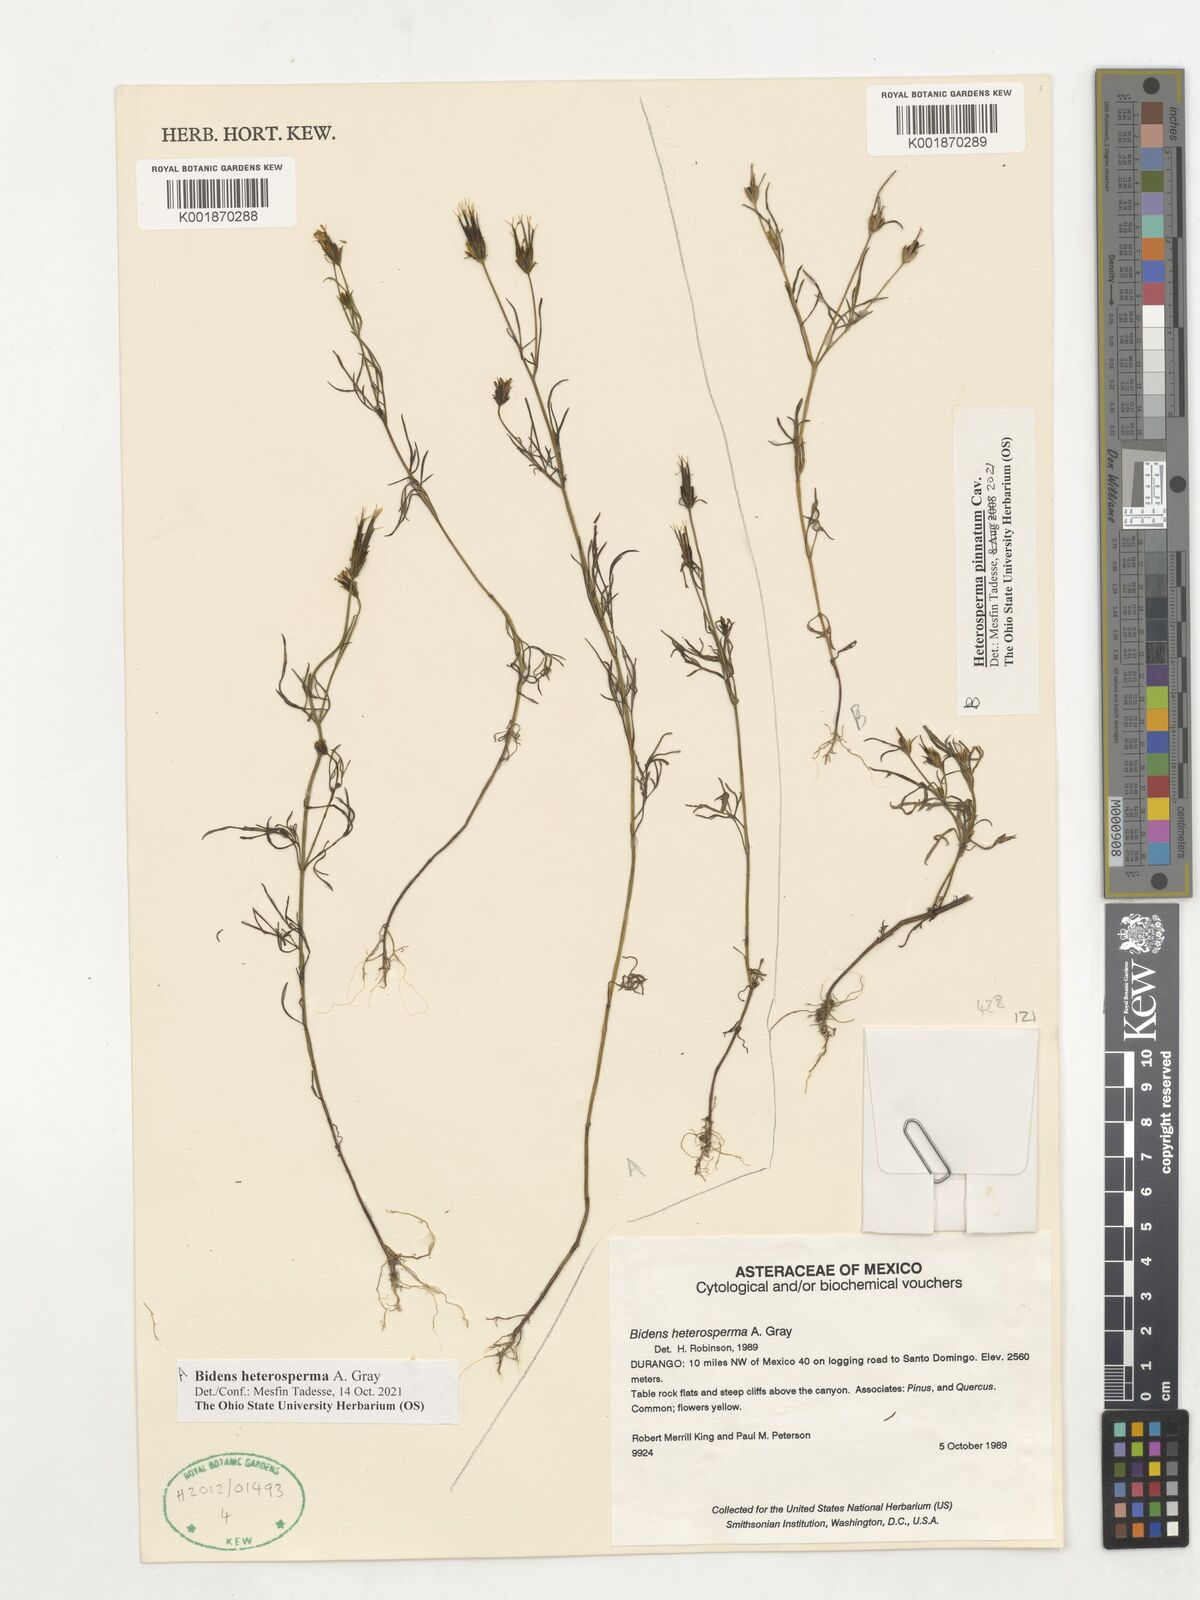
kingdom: Plantae
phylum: Tracheophyta
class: Magnoliopsida
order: Asterales
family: Asteraceae
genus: Bidens
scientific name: Bidens heterosperma
